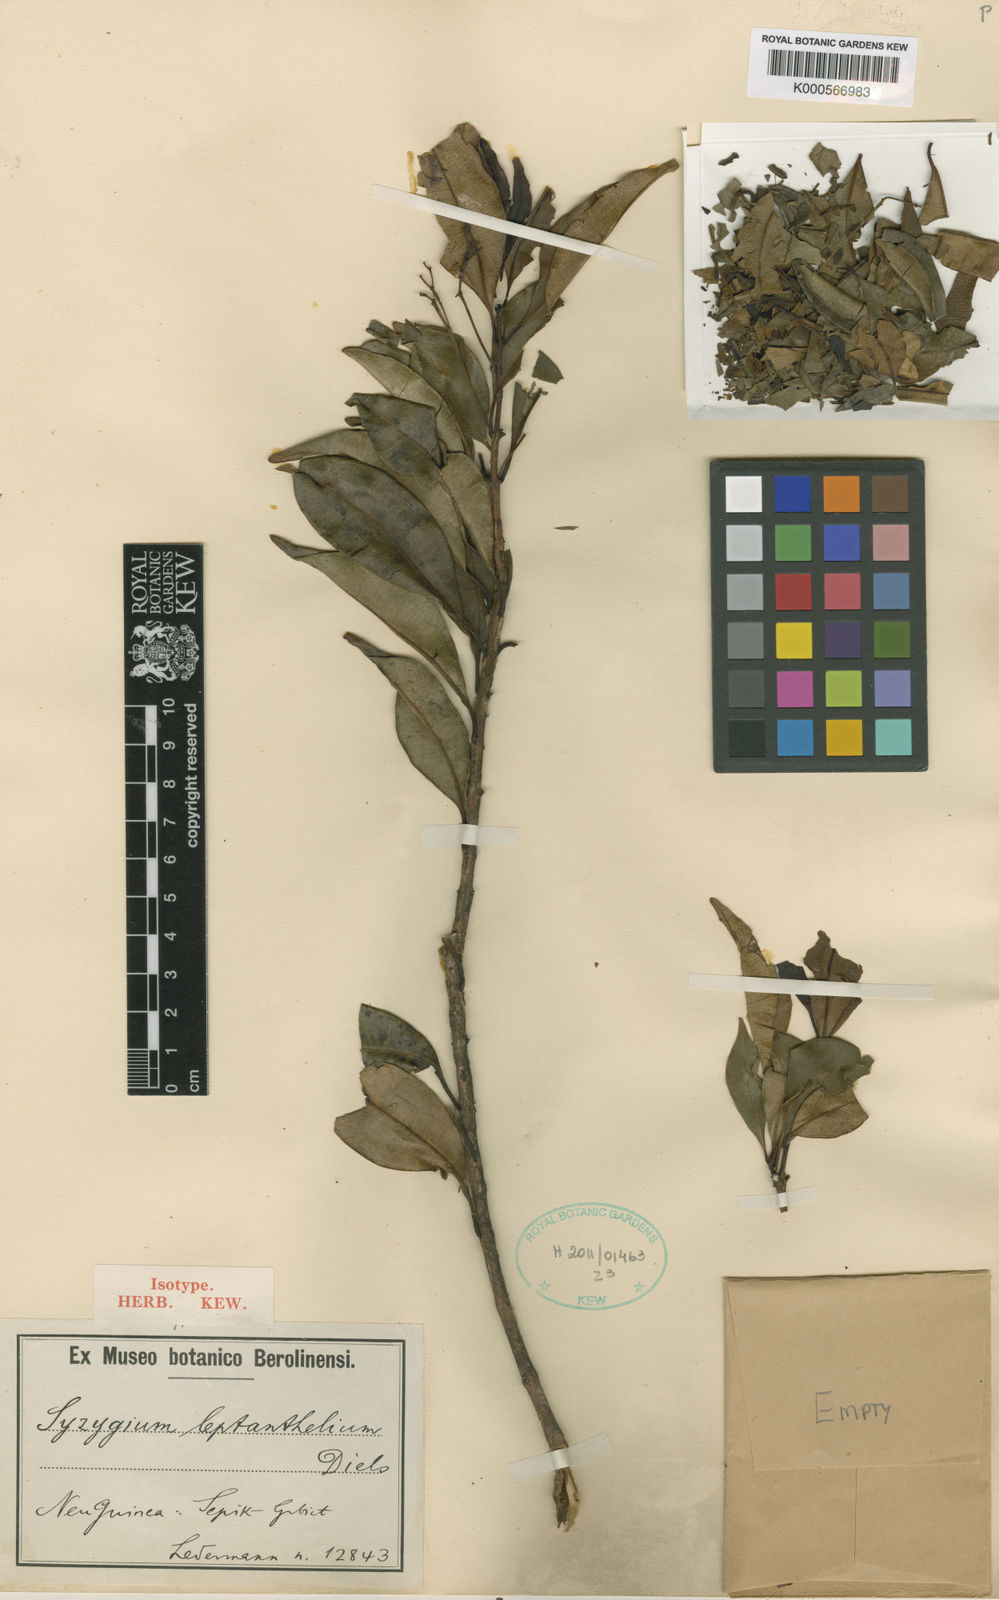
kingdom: Plantae
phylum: Tracheophyta
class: Magnoliopsida
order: Myrtales
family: Myrtaceae
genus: Syzygium
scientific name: Syzygium plumeum
